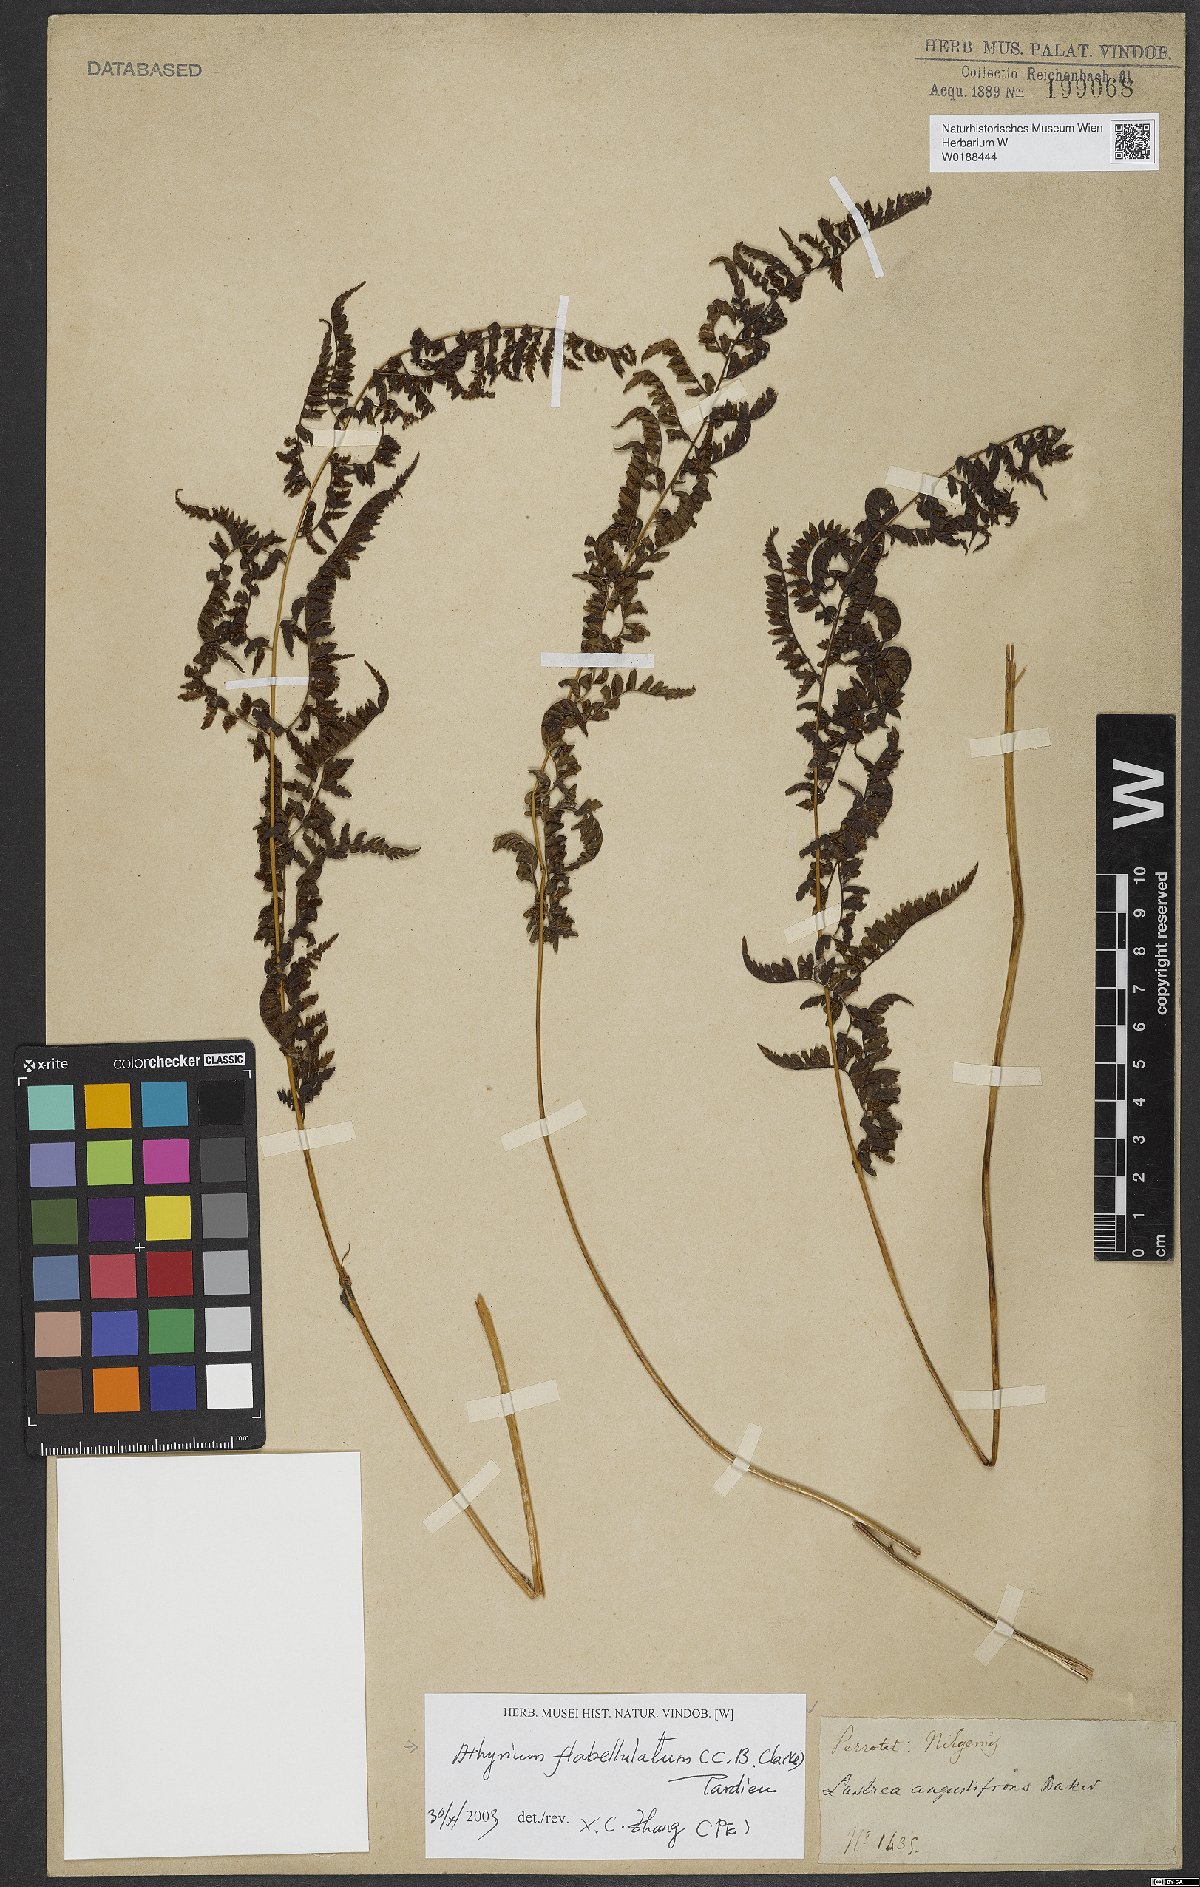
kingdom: Plantae
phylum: Tracheophyta
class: Polypodiopsida
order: Polypodiales
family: Athyriaceae
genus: Athyrium
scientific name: Athyrium flabellulatum
